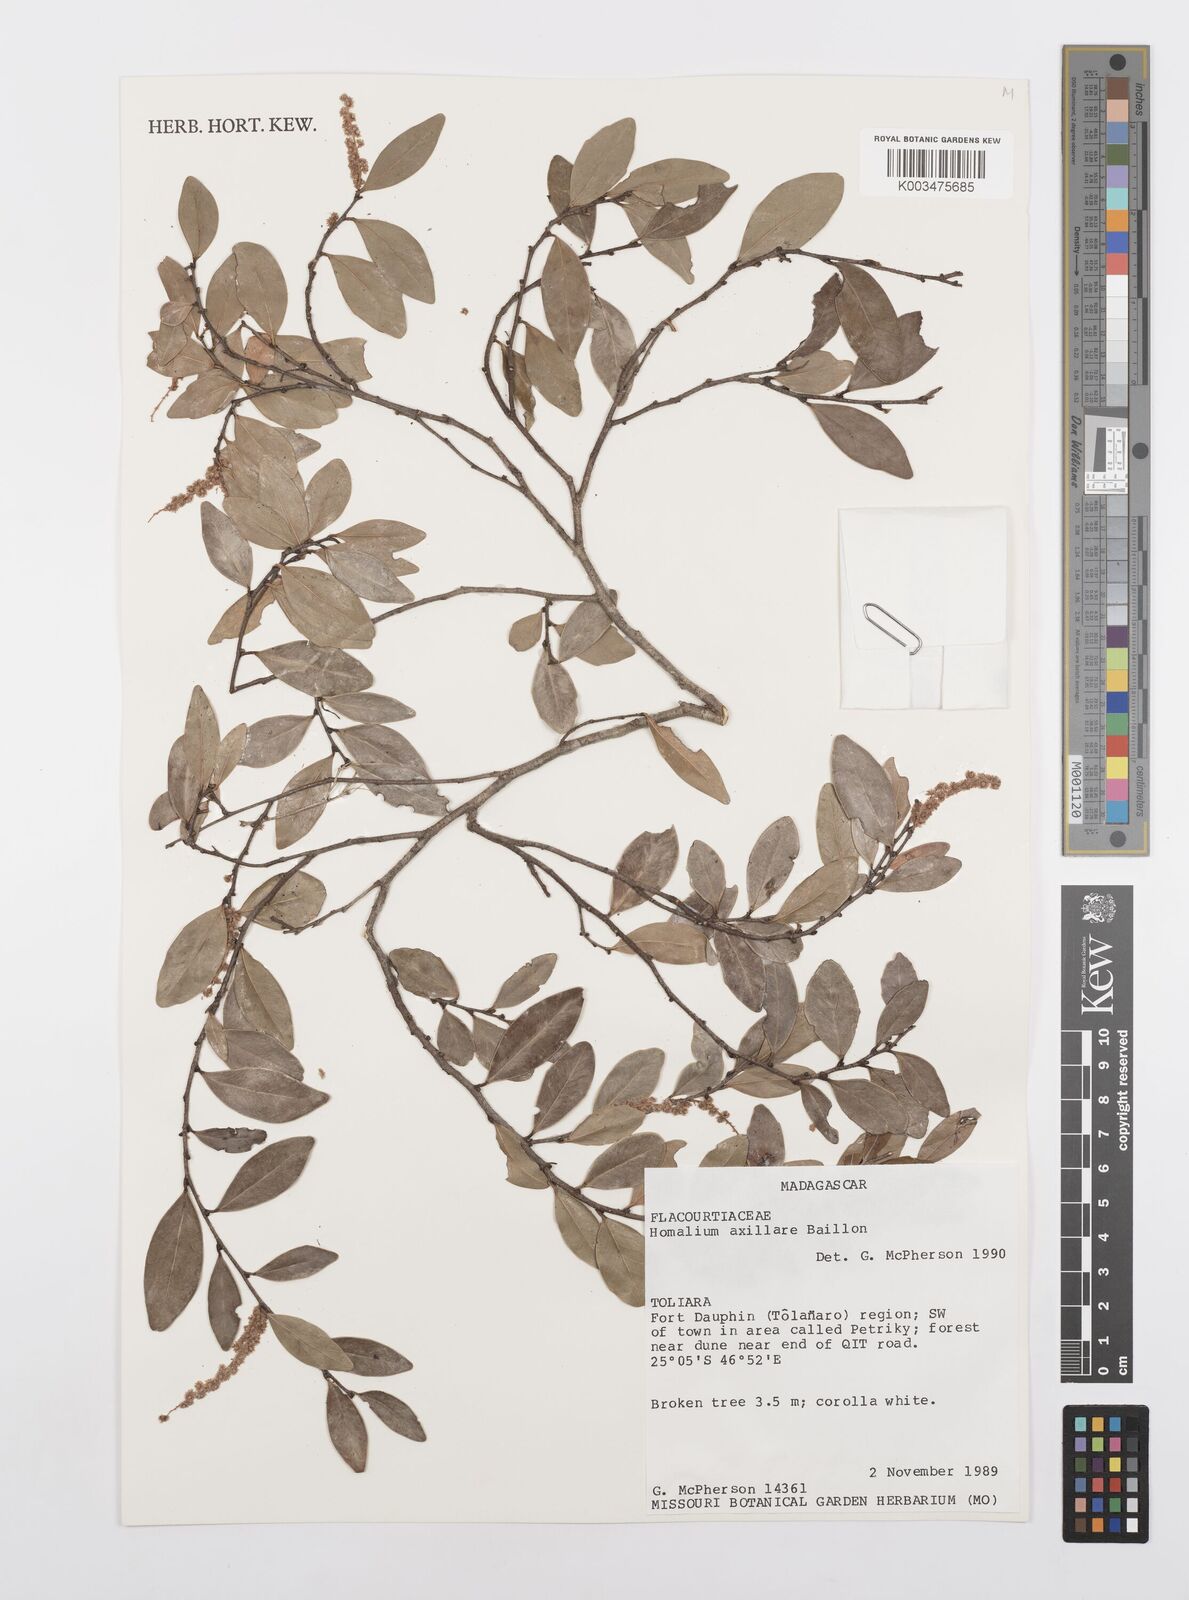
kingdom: Plantae
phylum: Tracheophyta
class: Magnoliopsida
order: Malpighiales
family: Salicaceae
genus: Homalium
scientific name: Homalium axillare
